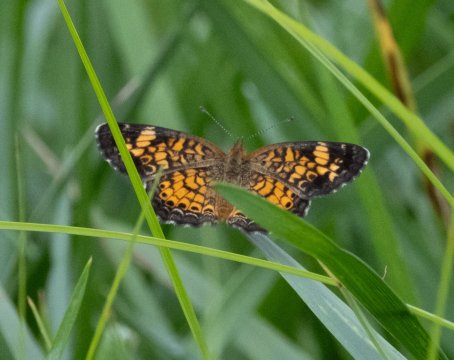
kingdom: Animalia
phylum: Arthropoda
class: Insecta
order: Lepidoptera
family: Nymphalidae
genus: Phyciodes
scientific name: Phyciodes tharos
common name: Pearl Crescent
